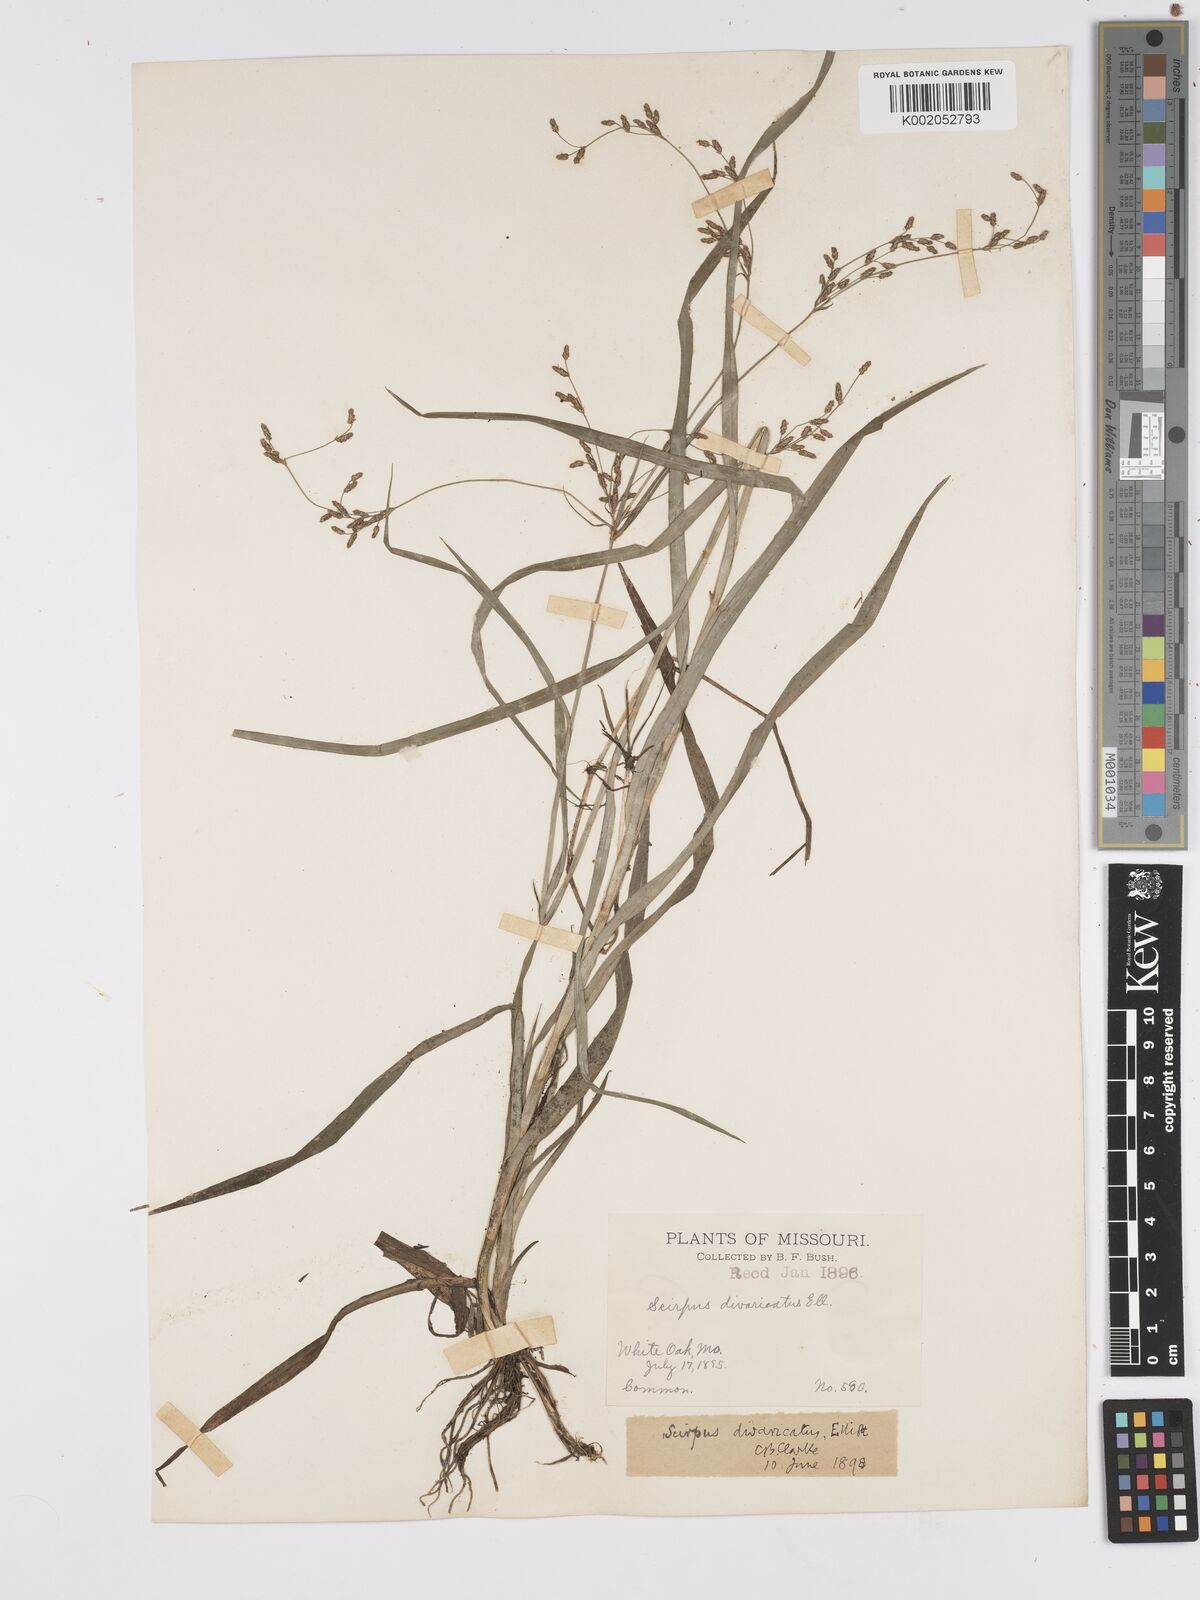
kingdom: Plantae
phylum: Tracheophyta
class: Liliopsida
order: Poales
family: Cyperaceae
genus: Scirpus
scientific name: Scirpus divaricatus
